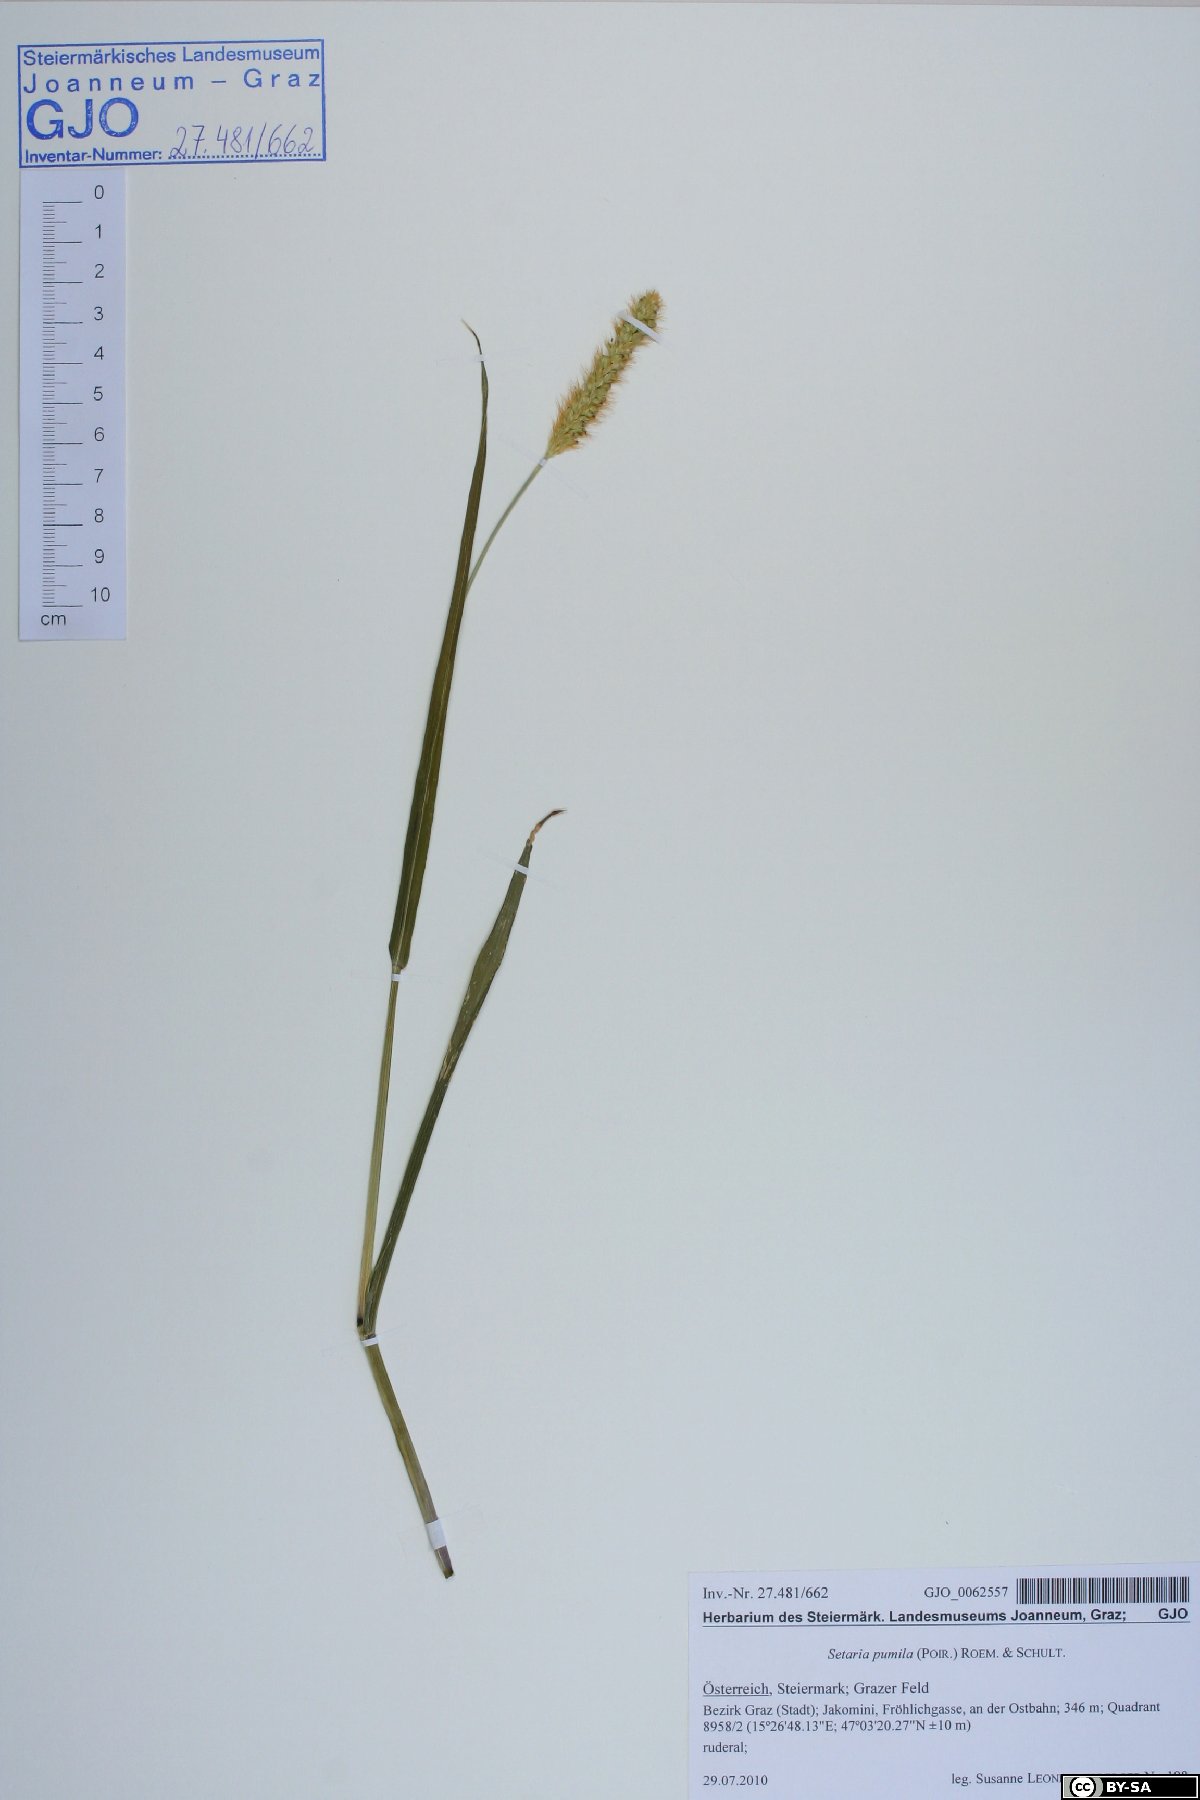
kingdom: Plantae
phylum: Tracheophyta
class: Liliopsida
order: Poales
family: Poaceae
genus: Setaria
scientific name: Setaria pumila
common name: Yellow bristle-grass
